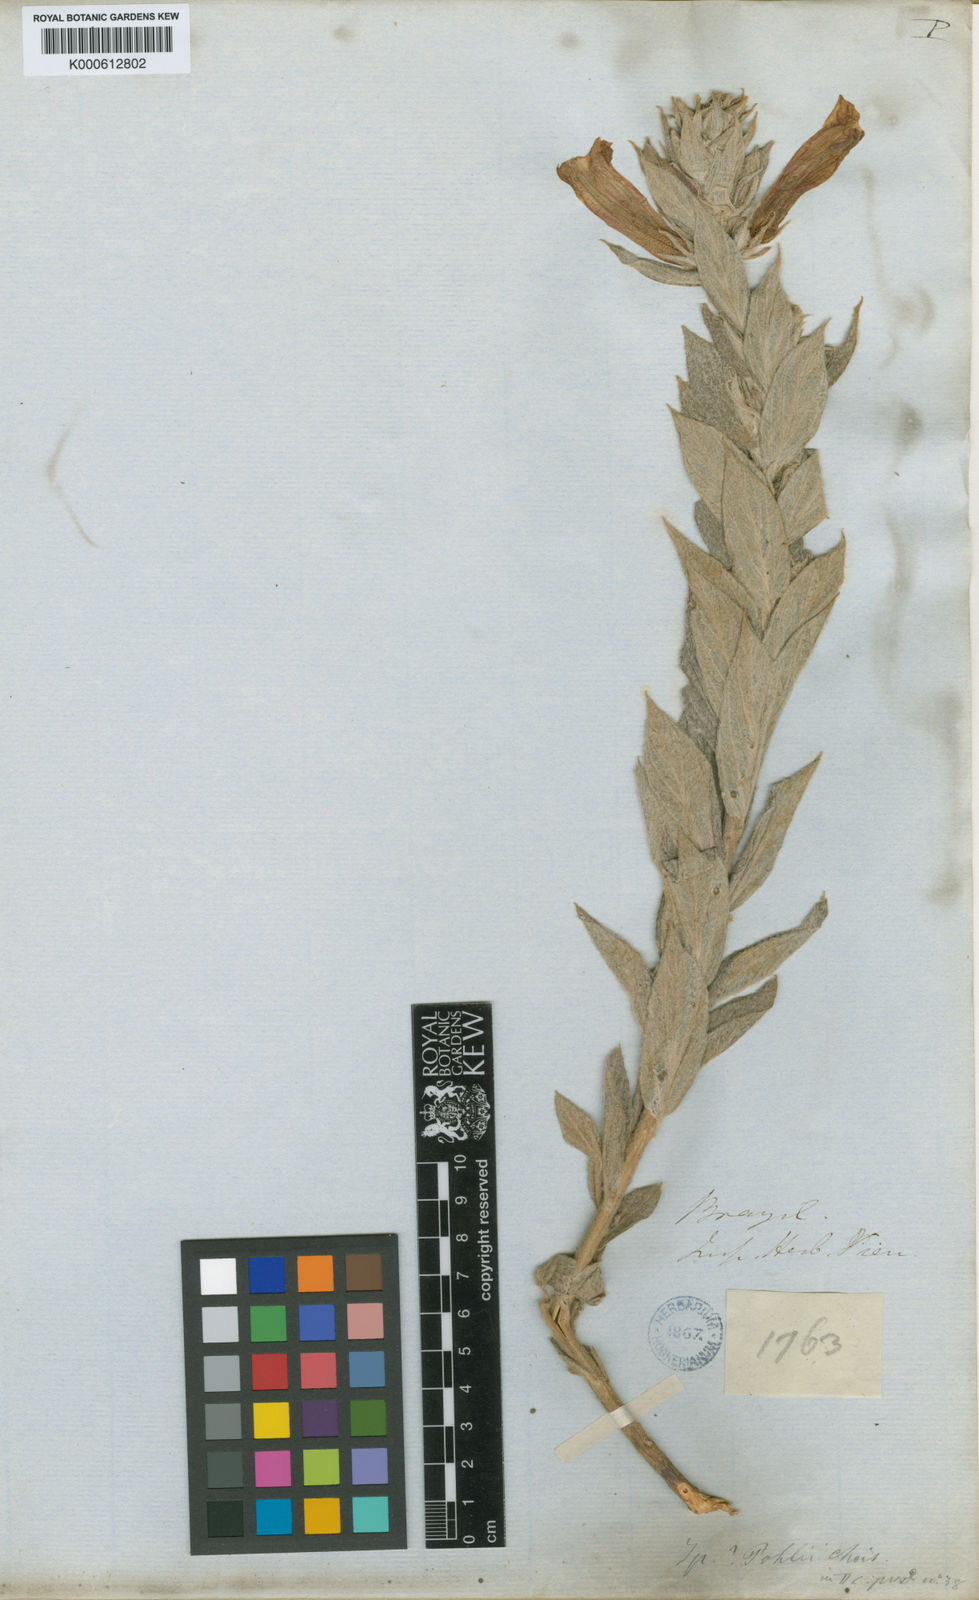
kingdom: Plantae
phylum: Tracheophyta
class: Magnoliopsida
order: Solanales
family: Convolvulaceae
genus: Ipomoea
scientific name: Ipomoea pohlii
